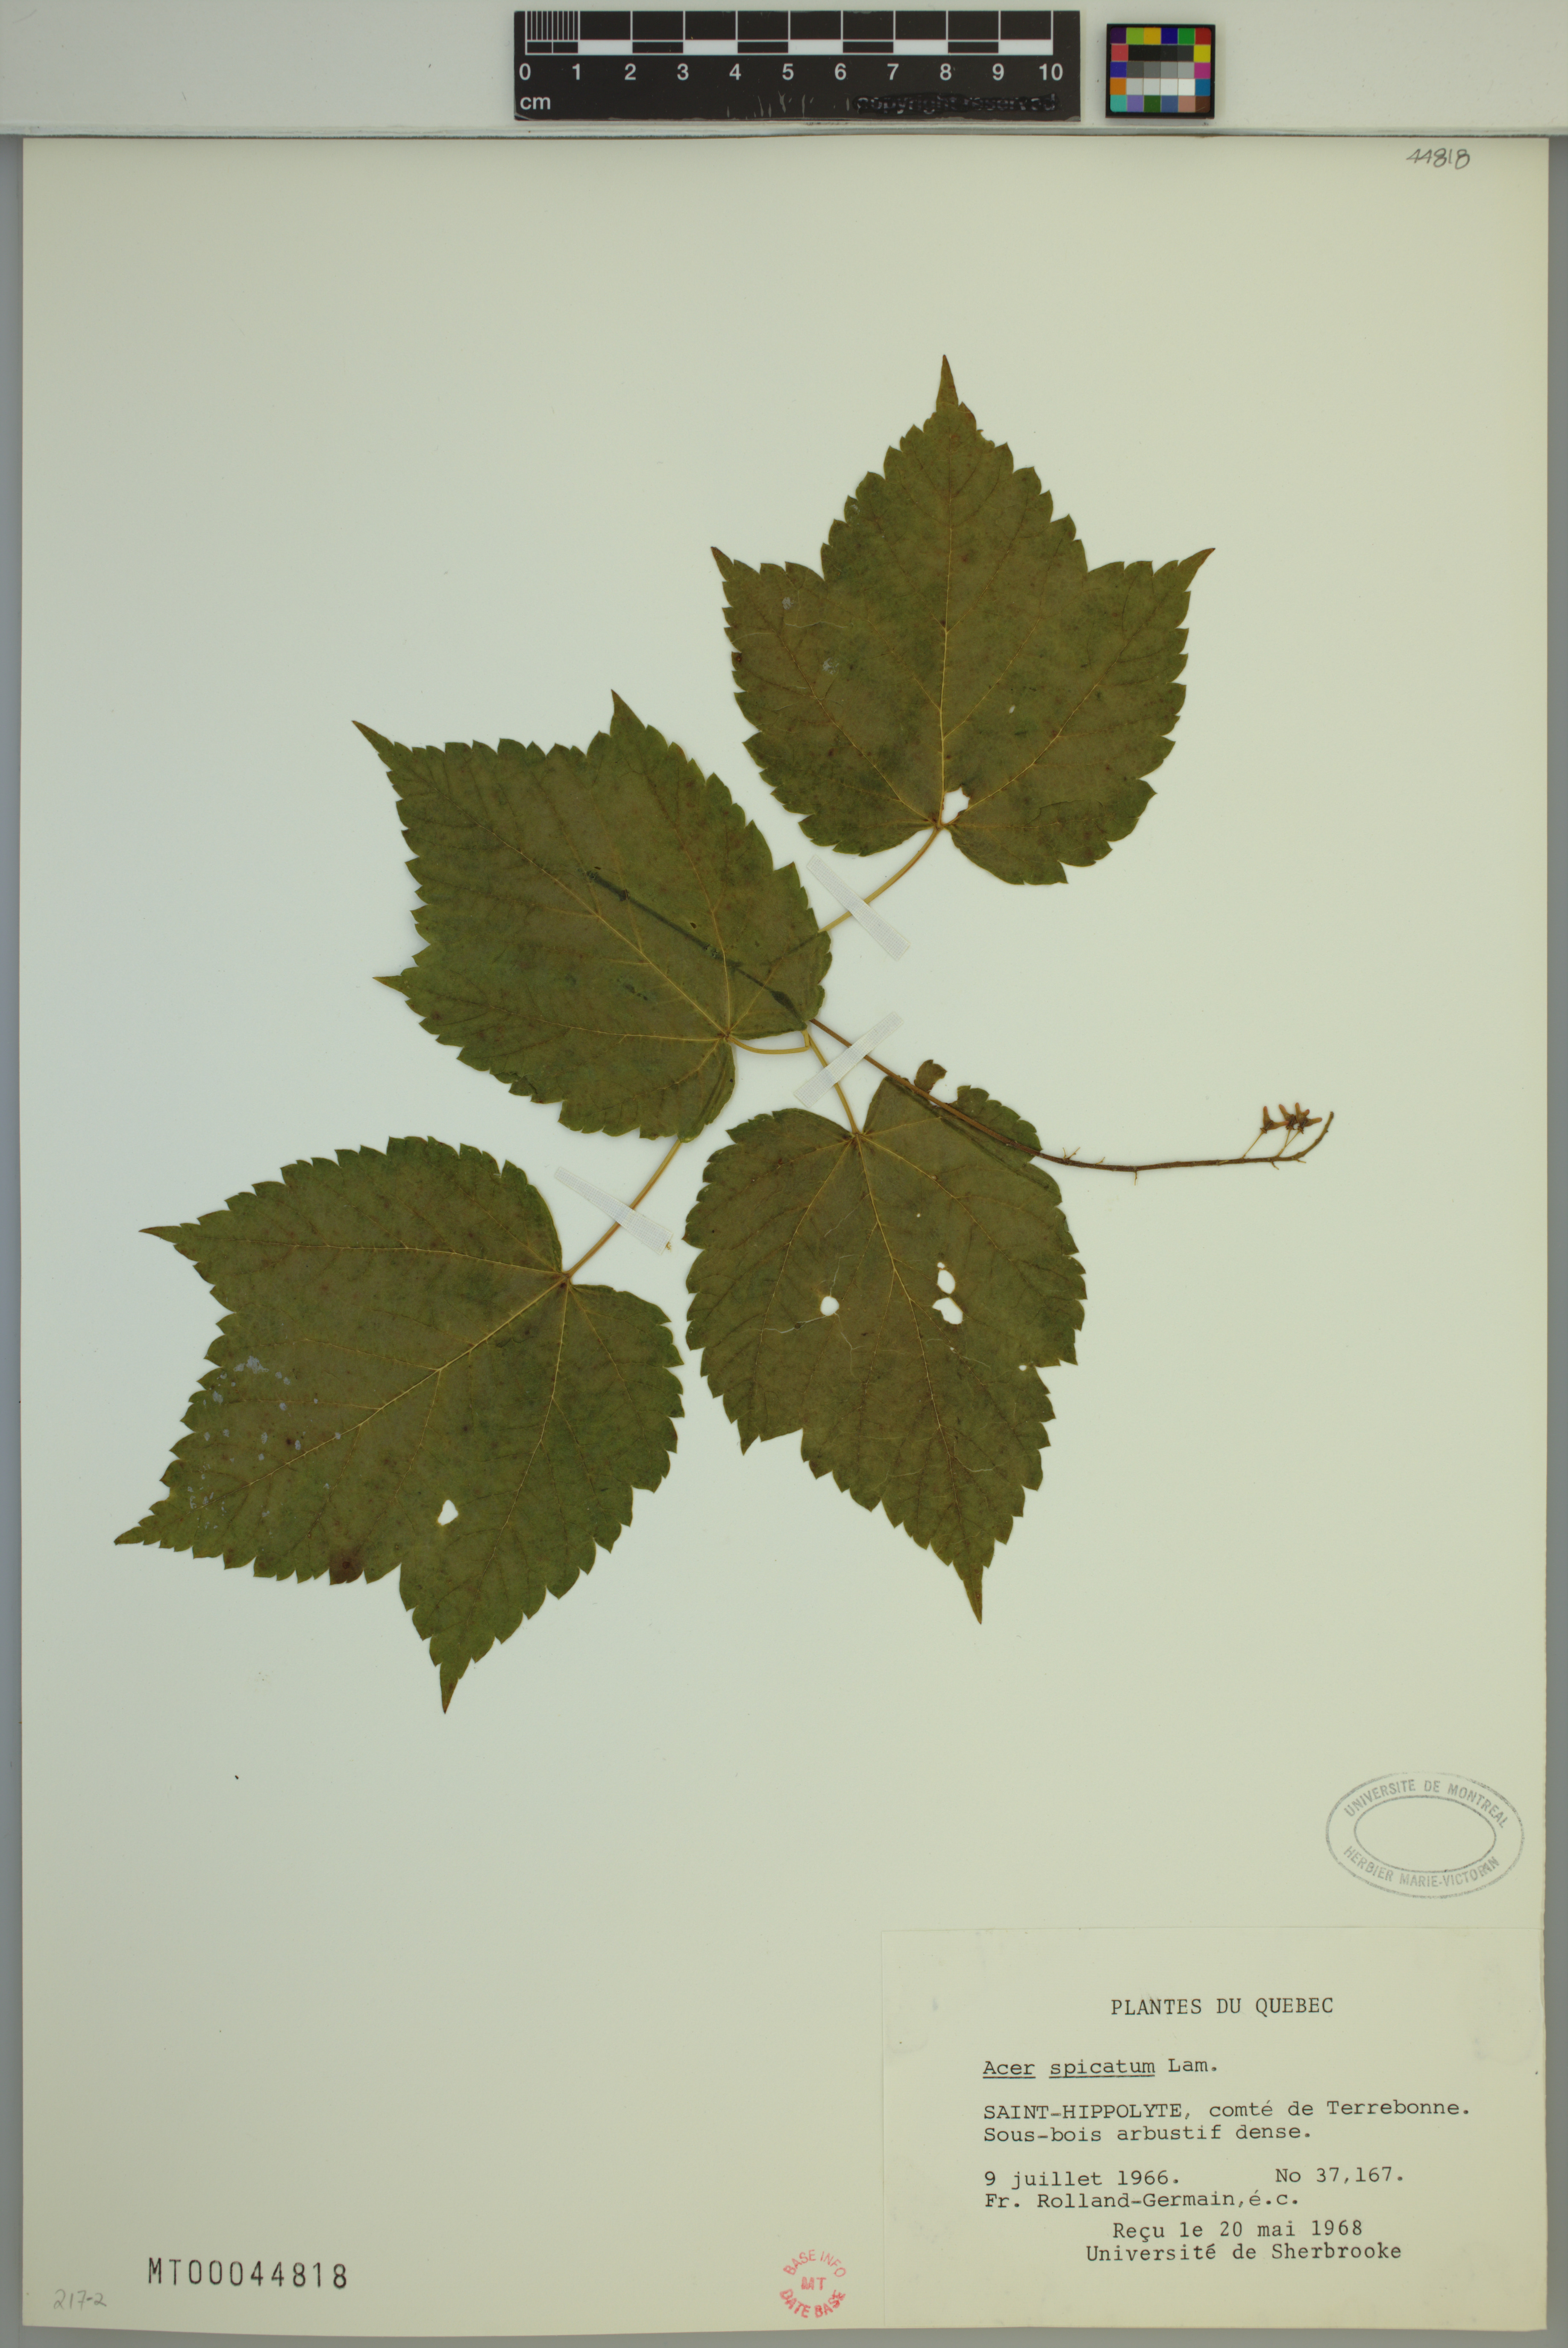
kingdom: Plantae
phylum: Tracheophyta
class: Magnoliopsida
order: Sapindales
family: Sapindaceae
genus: Acer
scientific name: Acer spicatum
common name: Mountain maple
